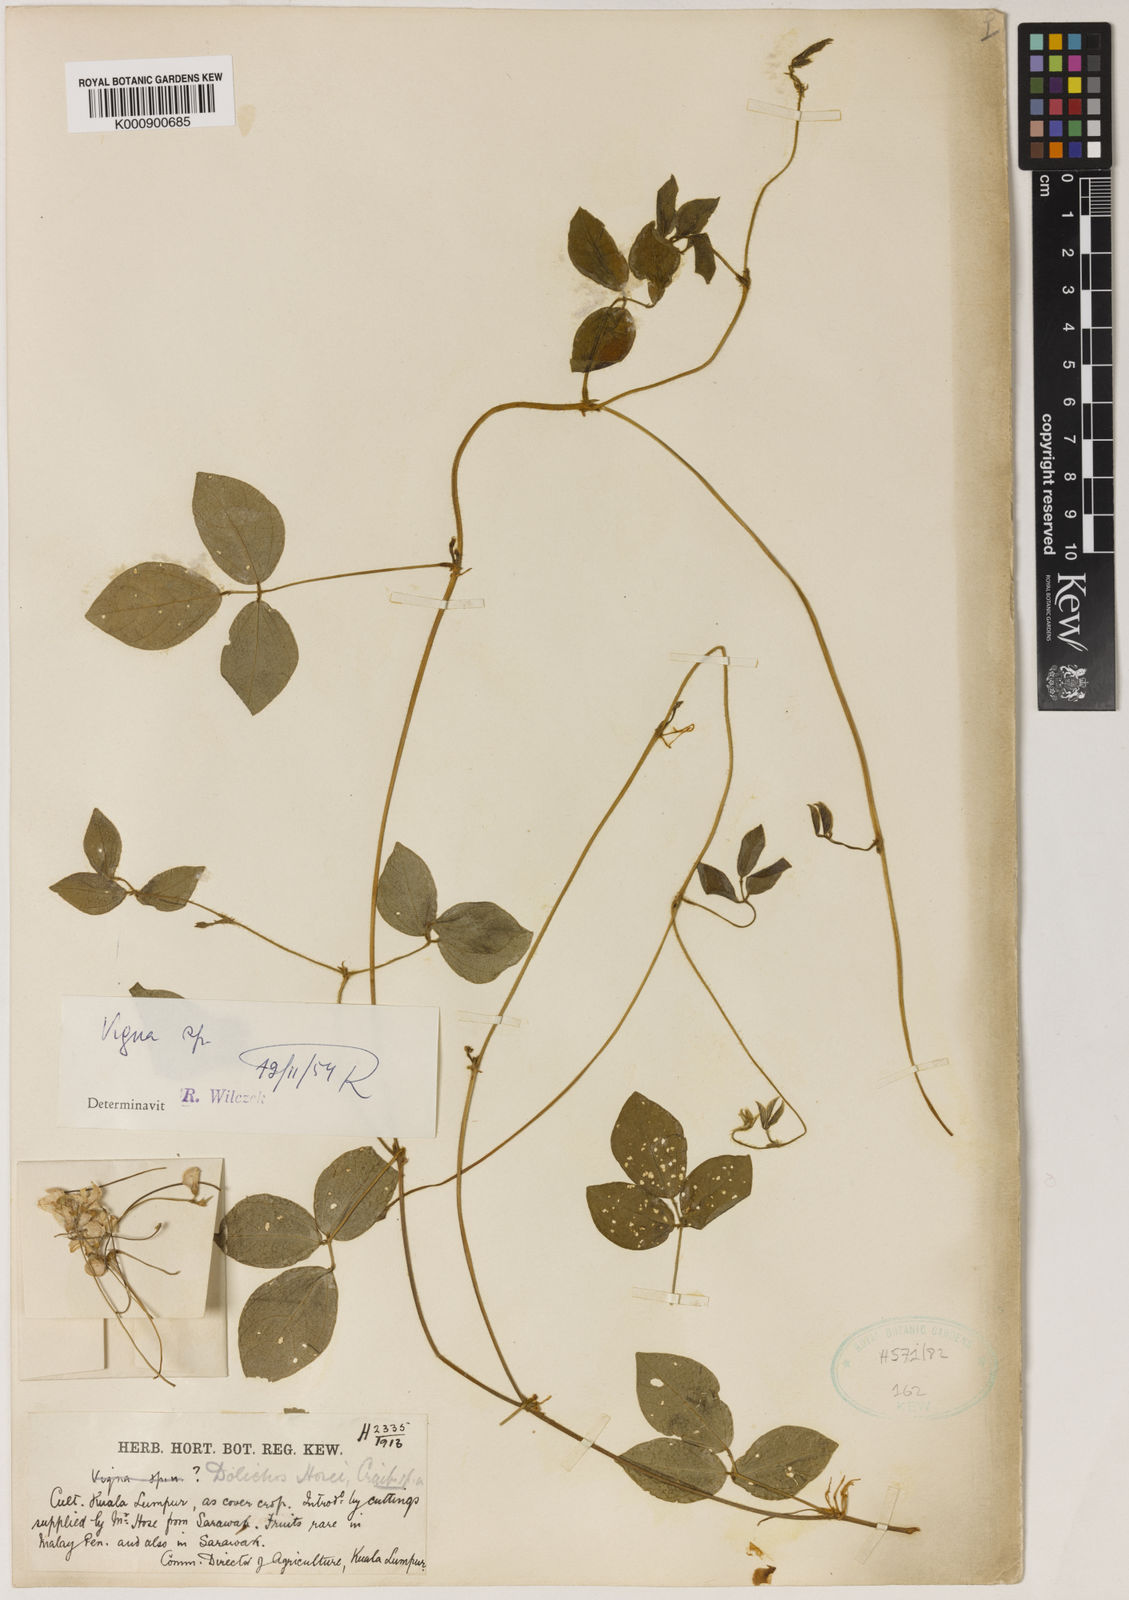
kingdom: Plantae
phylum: Tracheophyta
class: Magnoliopsida
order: Fabales
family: Fabaceae
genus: Vigna
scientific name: Vigna hosei
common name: Sarawak-bean
